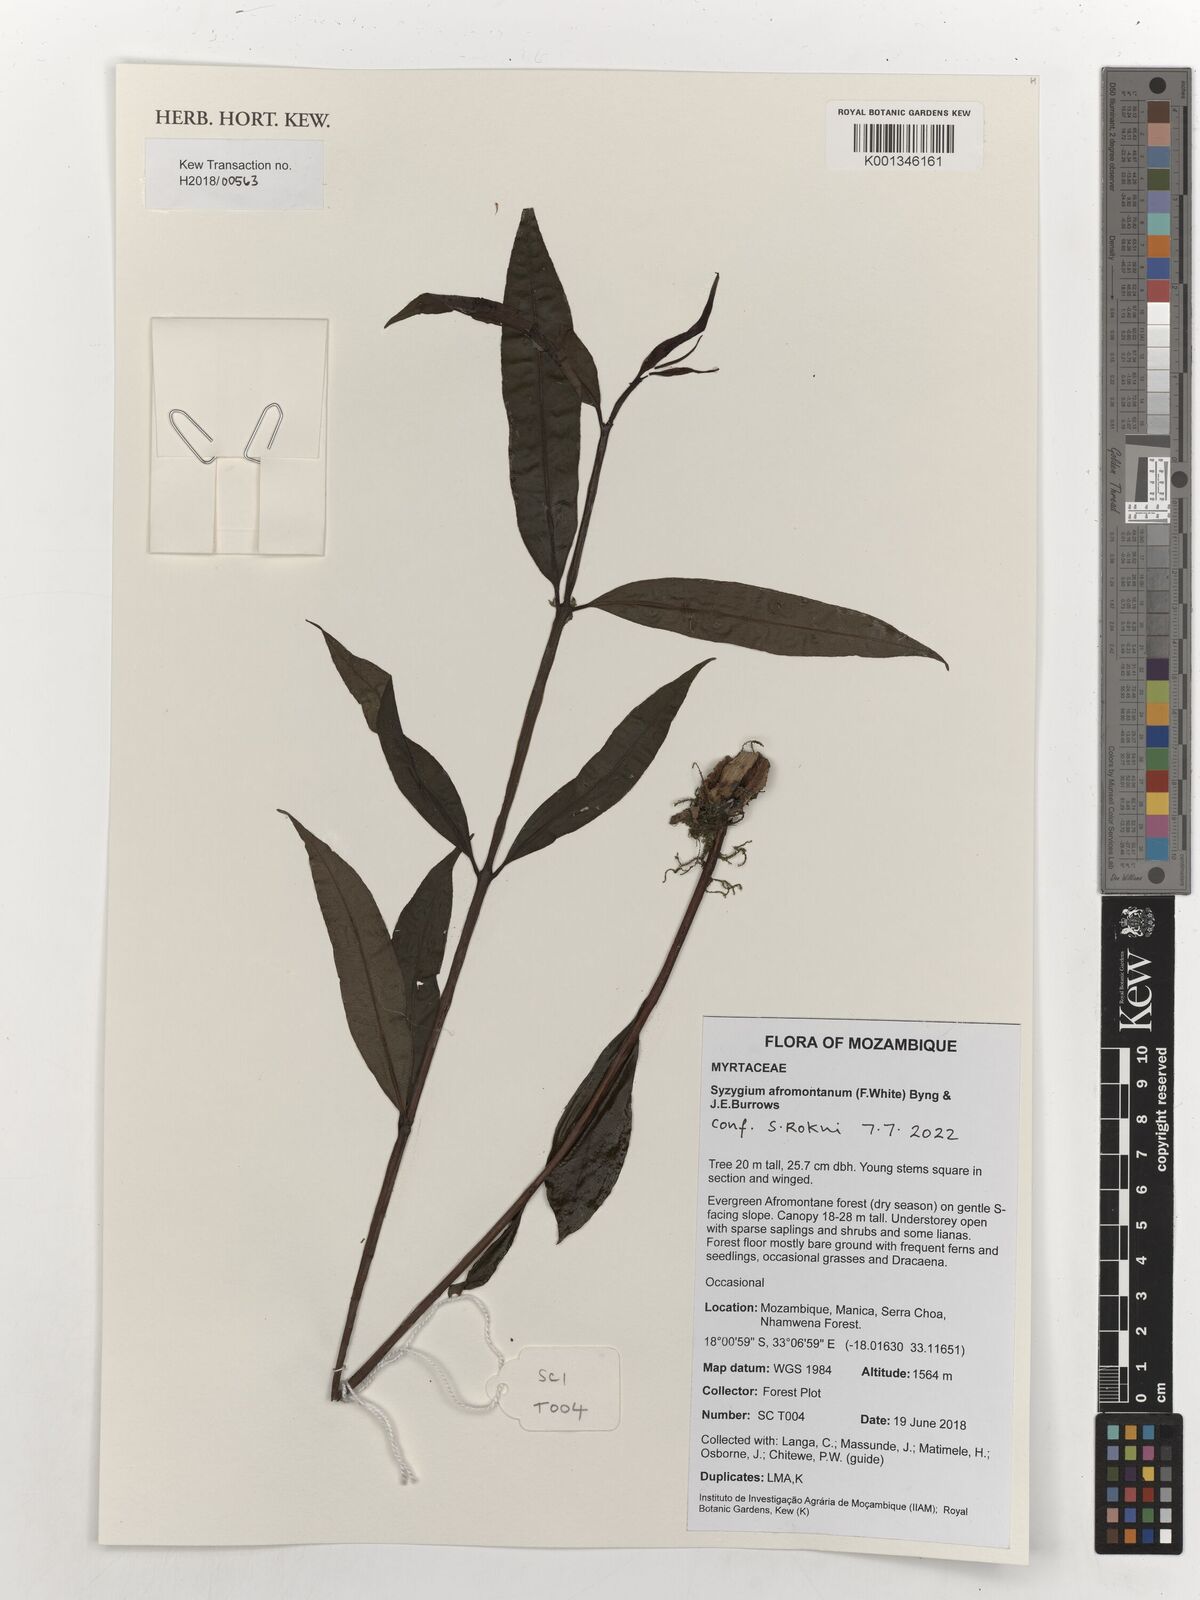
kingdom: Plantae
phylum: Tracheophyta
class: Magnoliopsida
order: Myrtales
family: Myrtaceae
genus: Syzygium
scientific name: Syzygium guineense
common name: Water-pear
